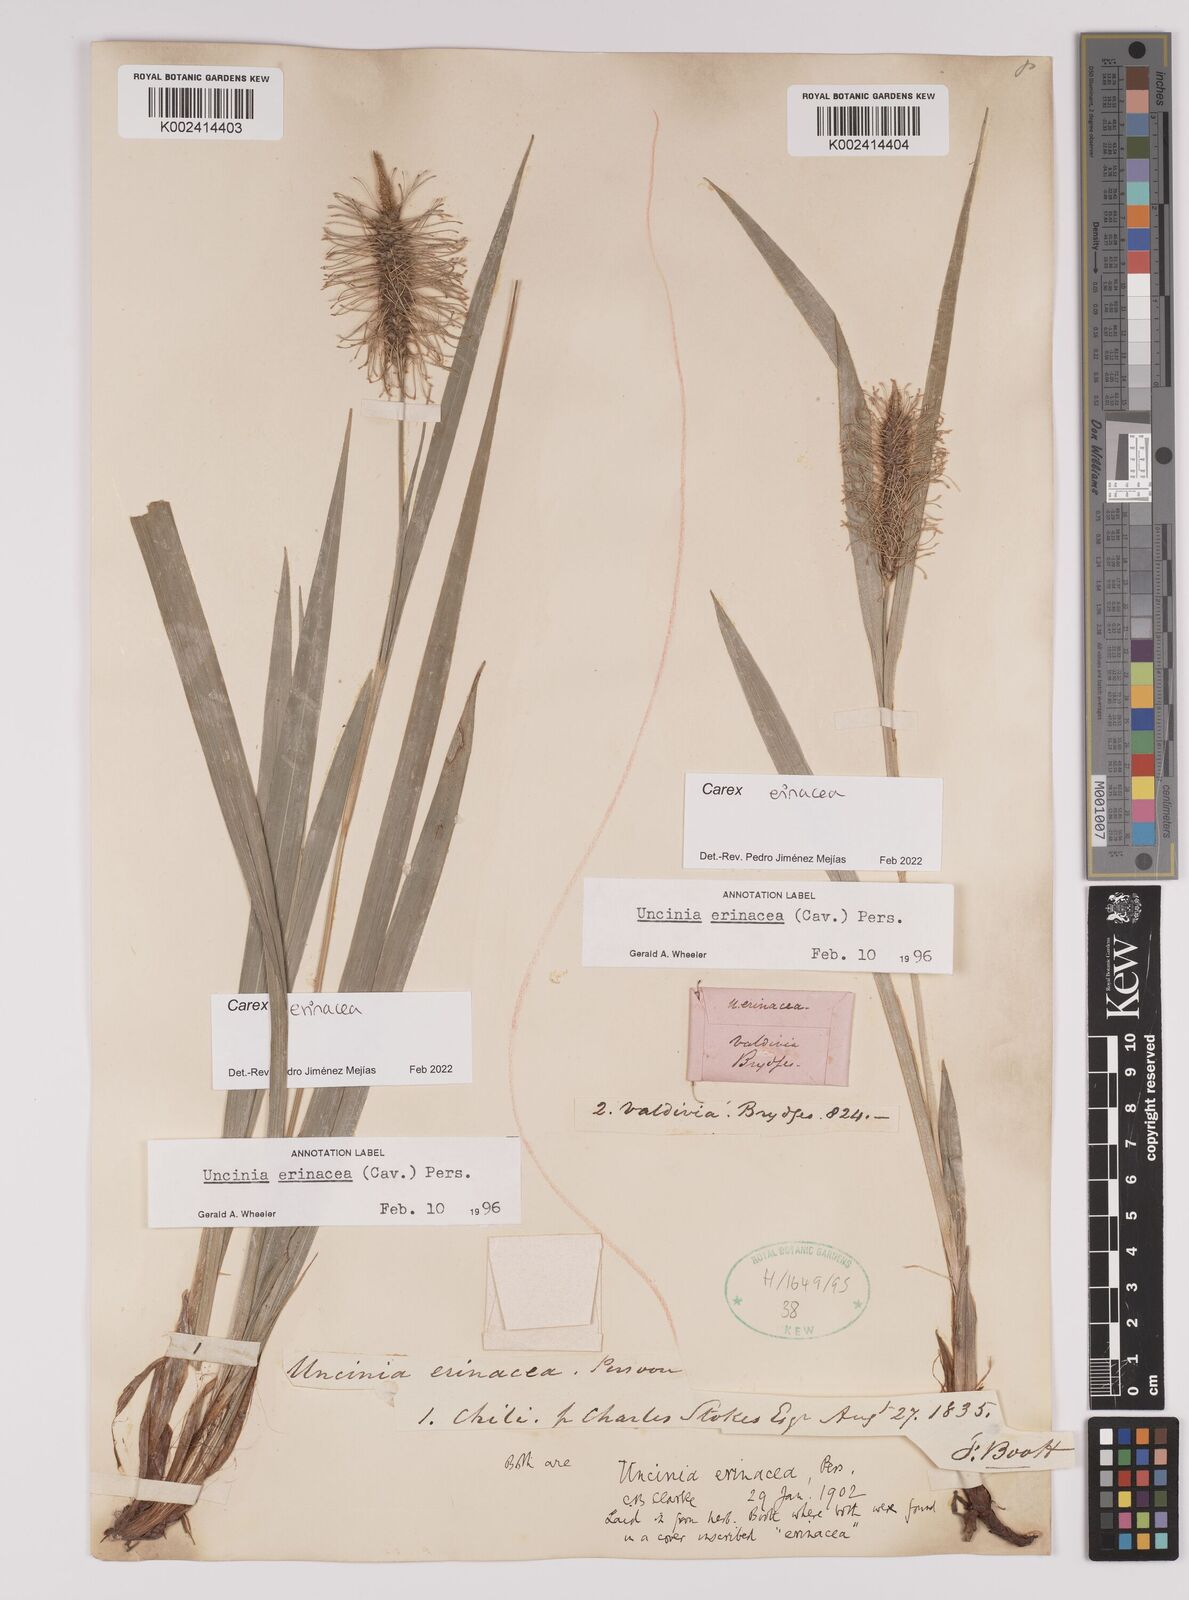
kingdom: Plantae
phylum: Tracheophyta
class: Liliopsida
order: Poales
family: Cyperaceae
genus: Carex
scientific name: Carex erinacea
